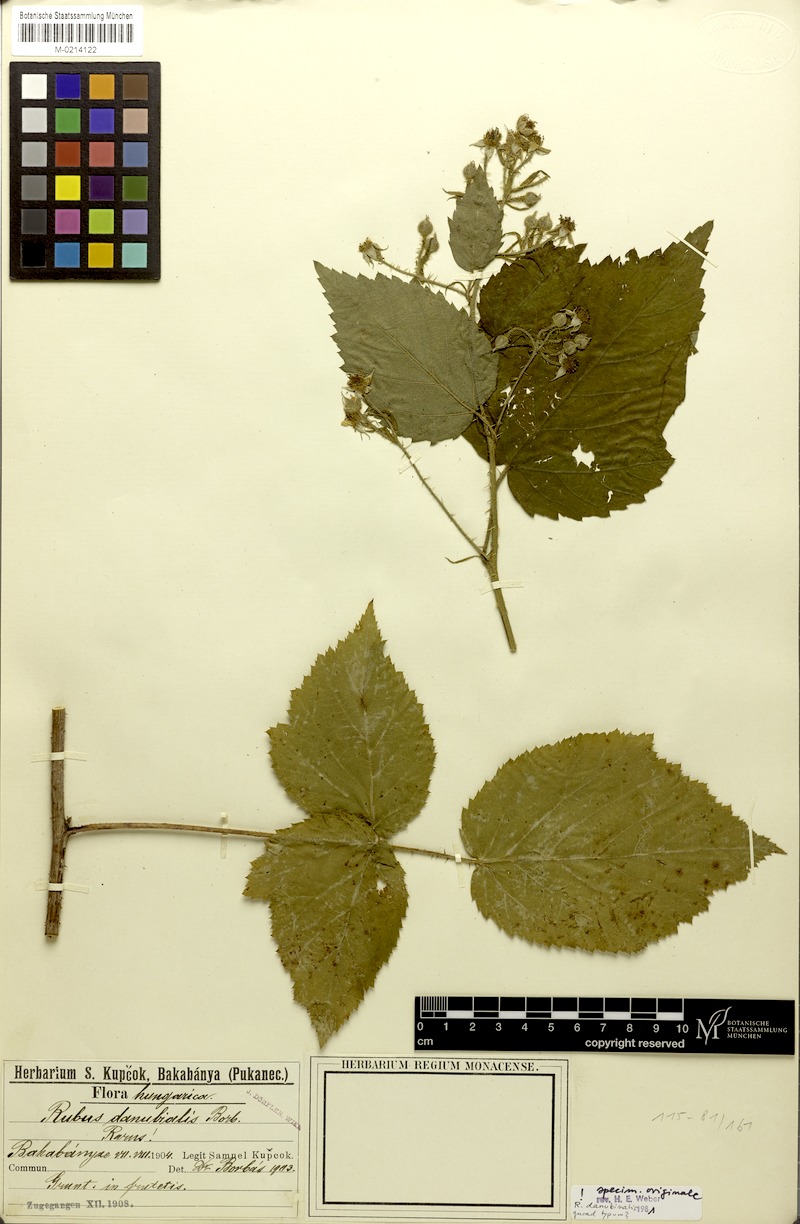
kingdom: Plantae
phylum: Tracheophyta
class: Magnoliopsida
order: Rosales
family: Rosaceae
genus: Rubus
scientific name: Rubus aculeolatus
